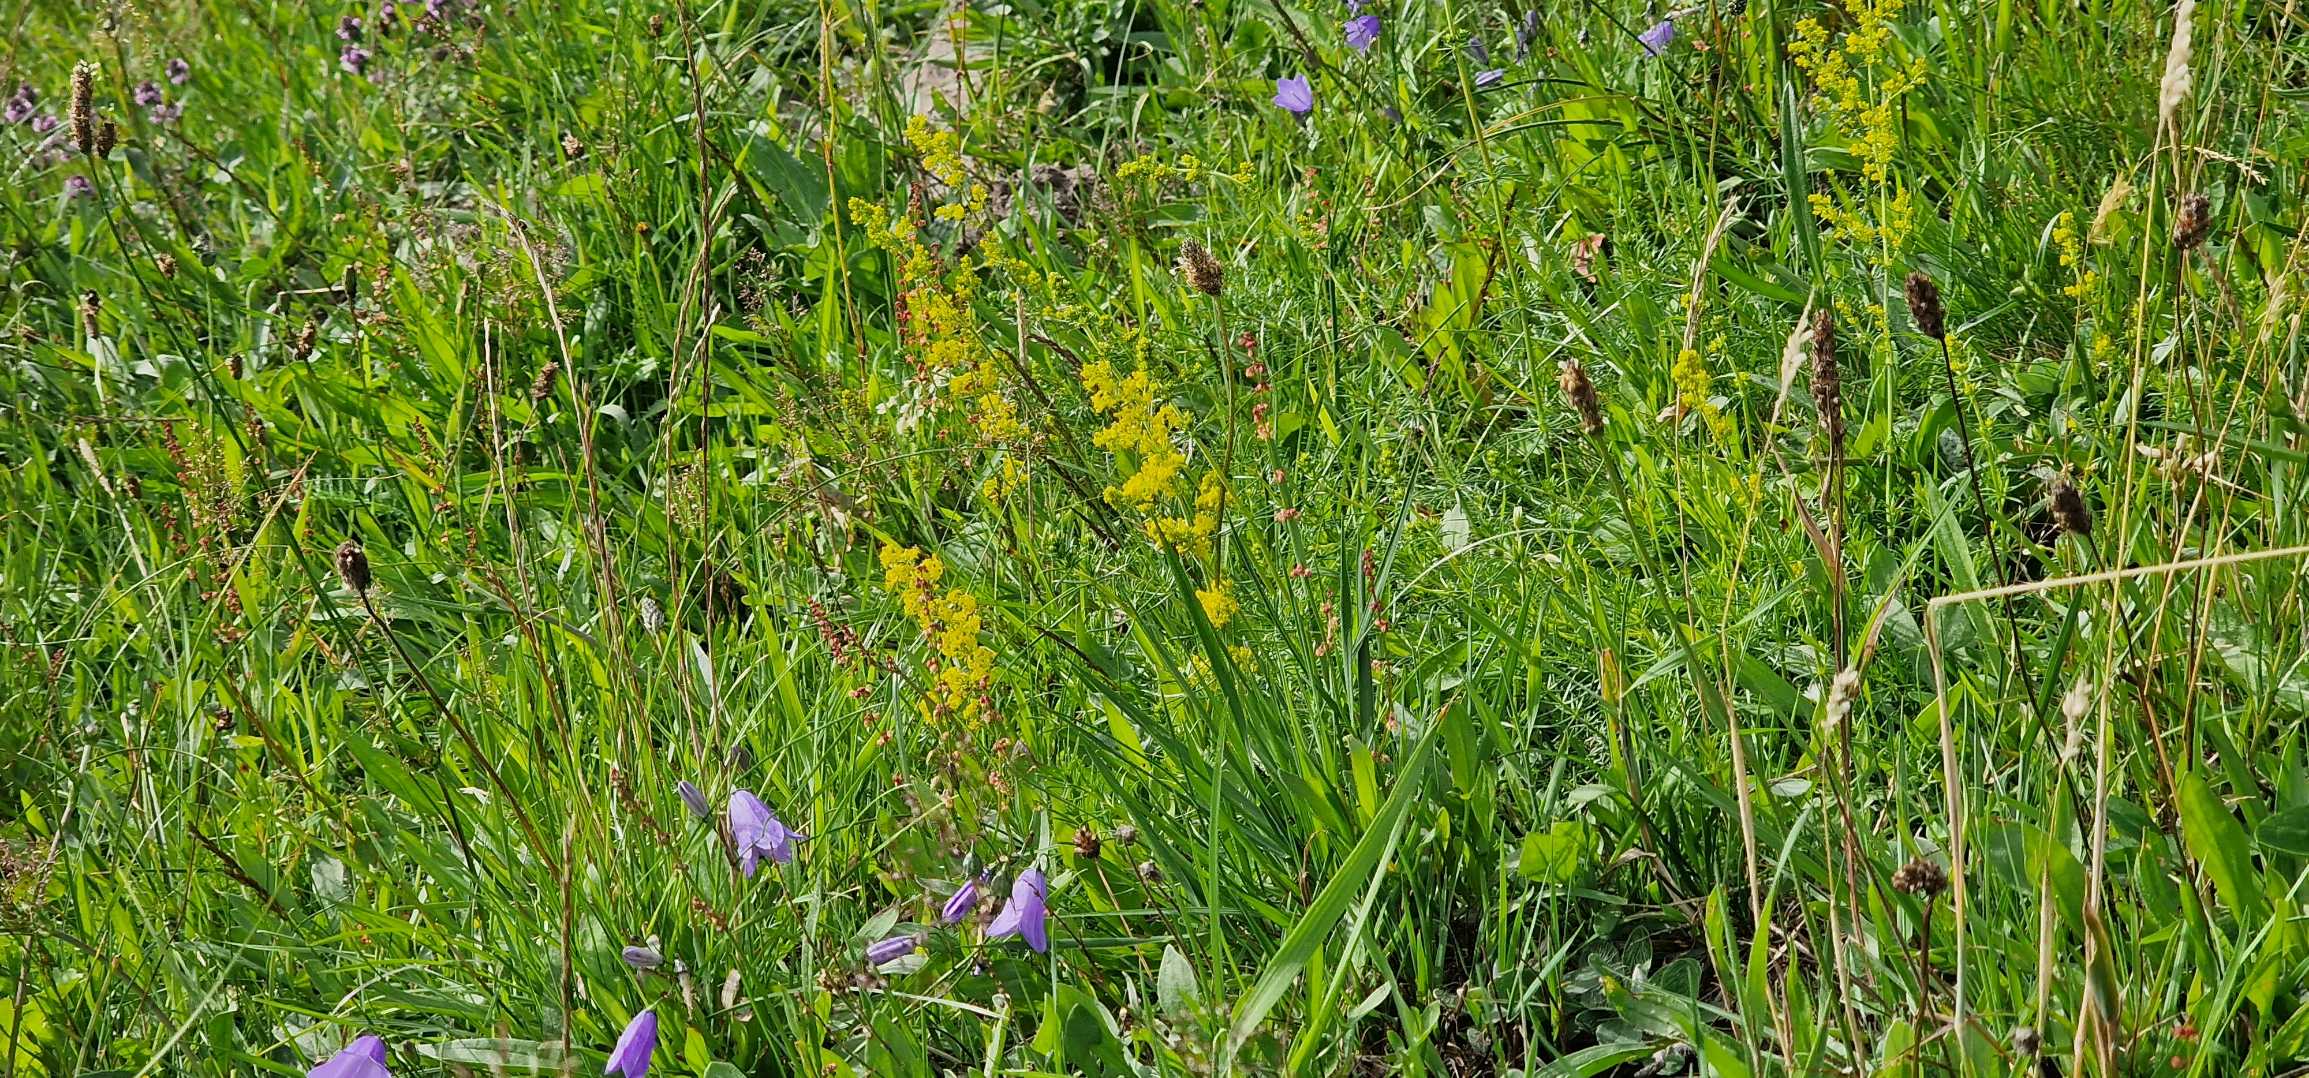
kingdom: Plantae
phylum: Tracheophyta
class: Magnoliopsida
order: Gentianales
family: Rubiaceae
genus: Galium
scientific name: Galium verum
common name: Gul snerre
